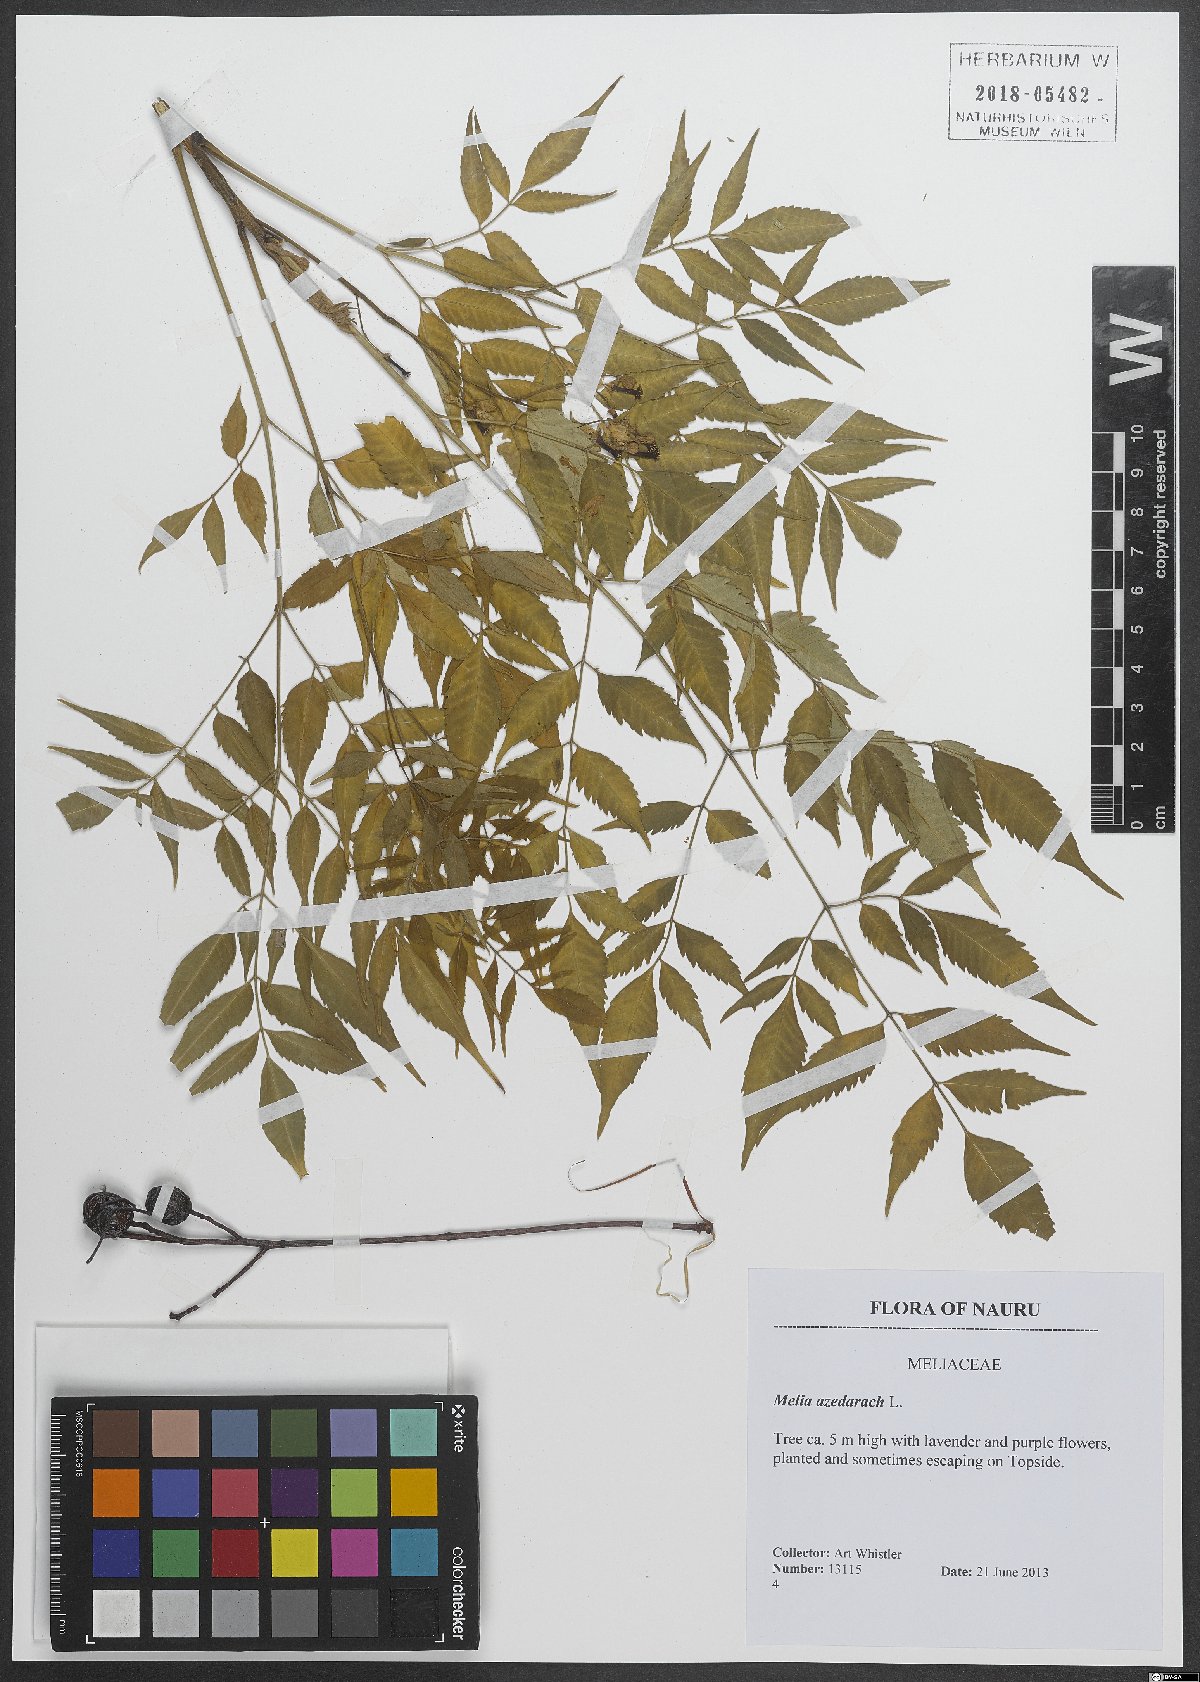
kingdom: Plantae
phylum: Tracheophyta
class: Magnoliopsida
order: Sapindales
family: Meliaceae
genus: Melia
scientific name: Melia azedarach
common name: Chinaberrytree
